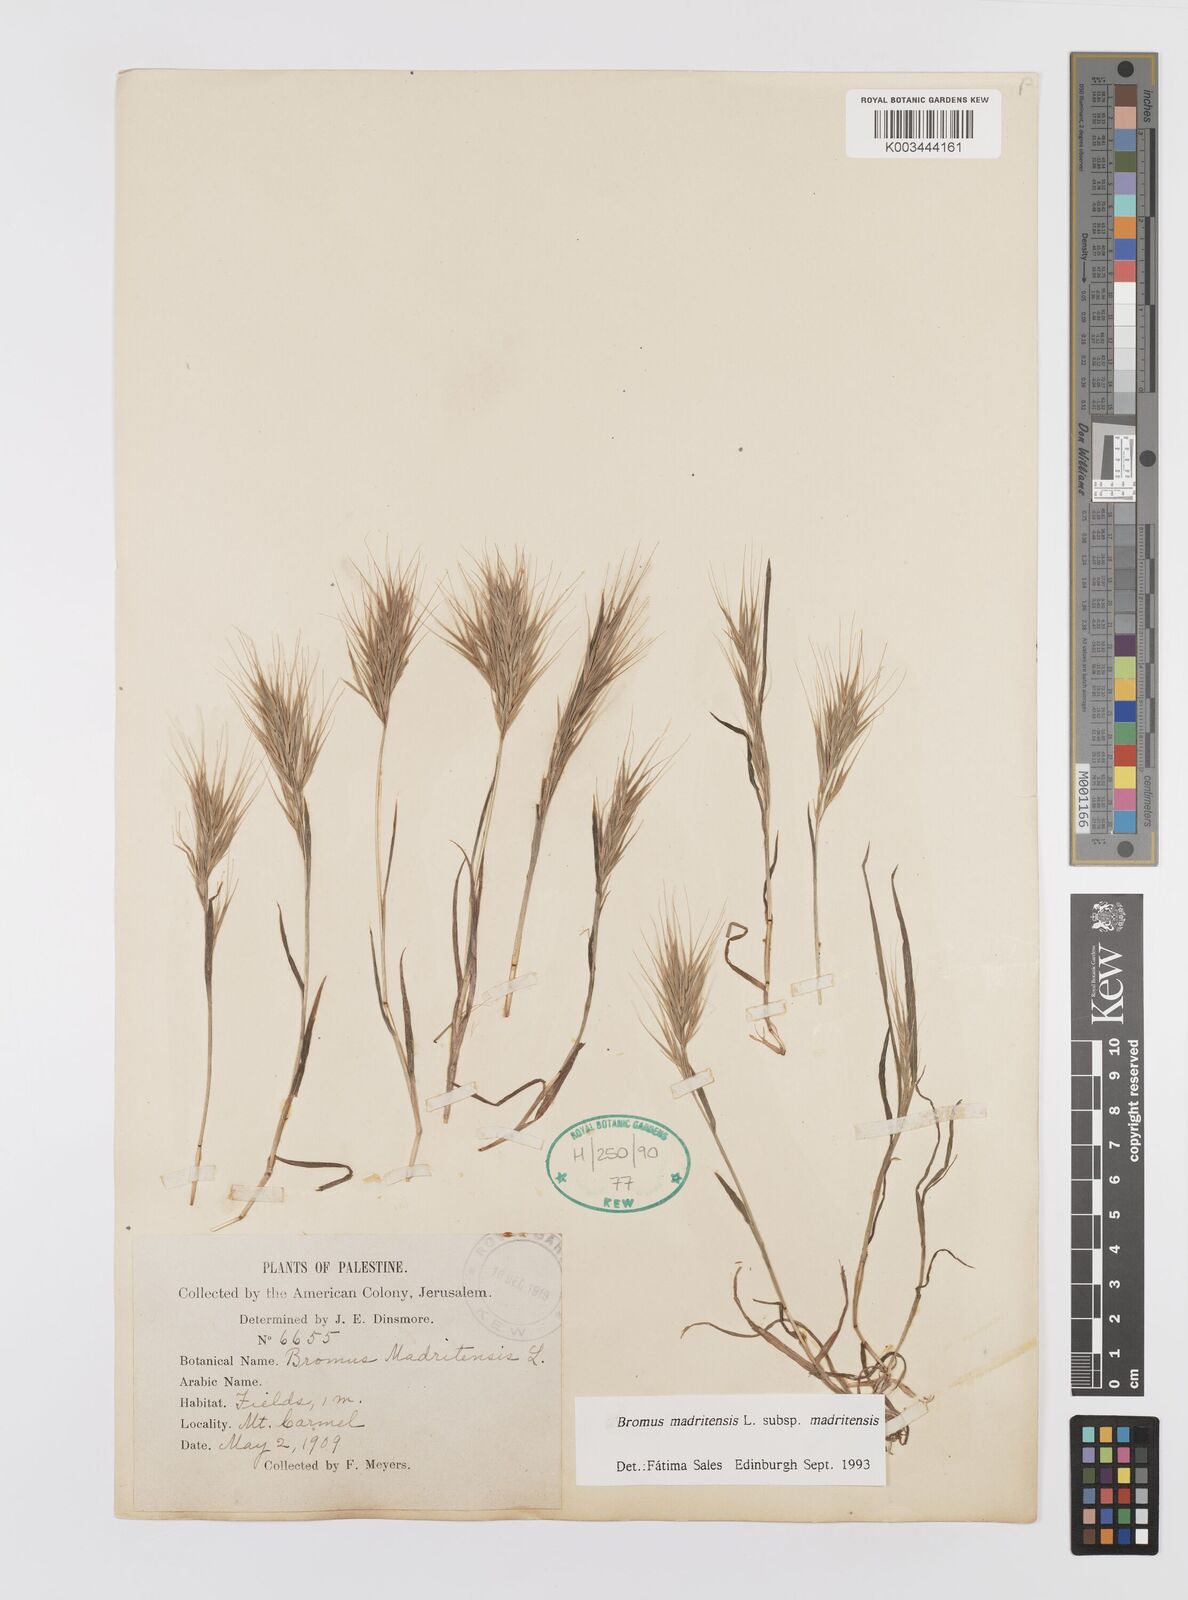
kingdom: Plantae
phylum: Tracheophyta
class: Liliopsida
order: Poales
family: Poaceae
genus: Bromus
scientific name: Bromus madritensis
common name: Compact brome
